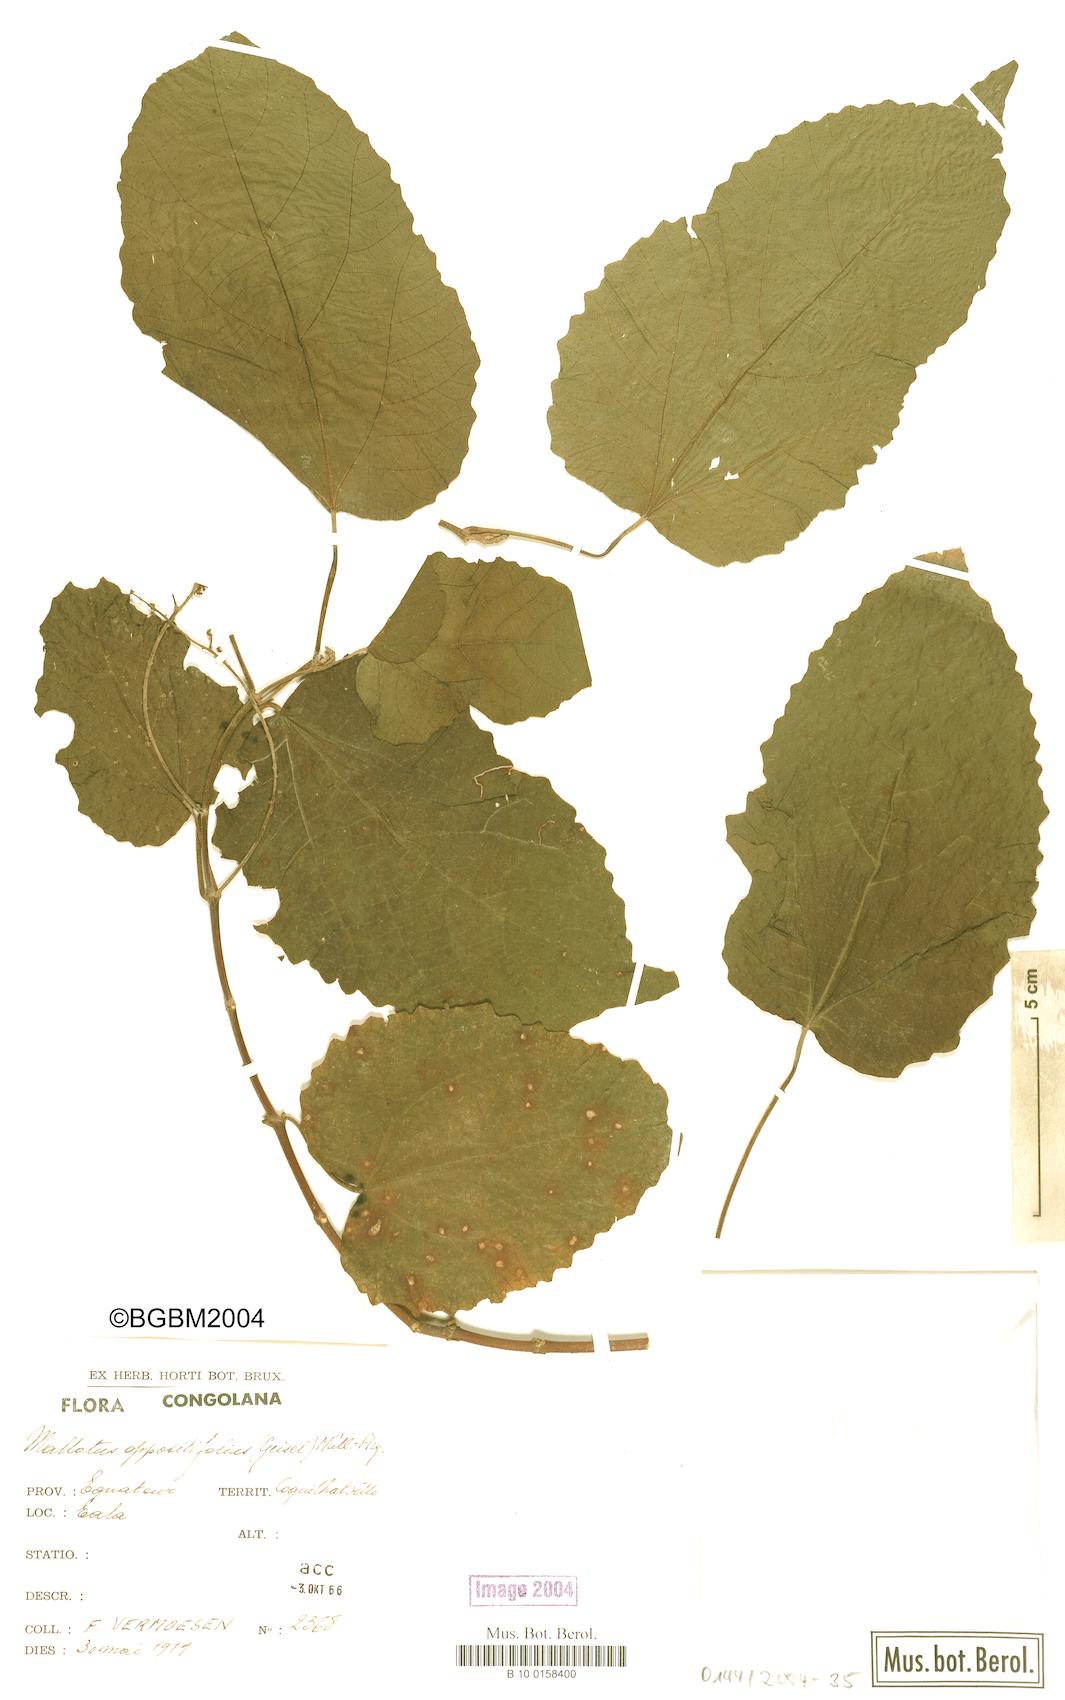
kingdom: Plantae
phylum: Tracheophyta
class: Magnoliopsida
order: Malpighiales
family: Euphorbiaceae
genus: Mallotus
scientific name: Mallotus oppositifolius
